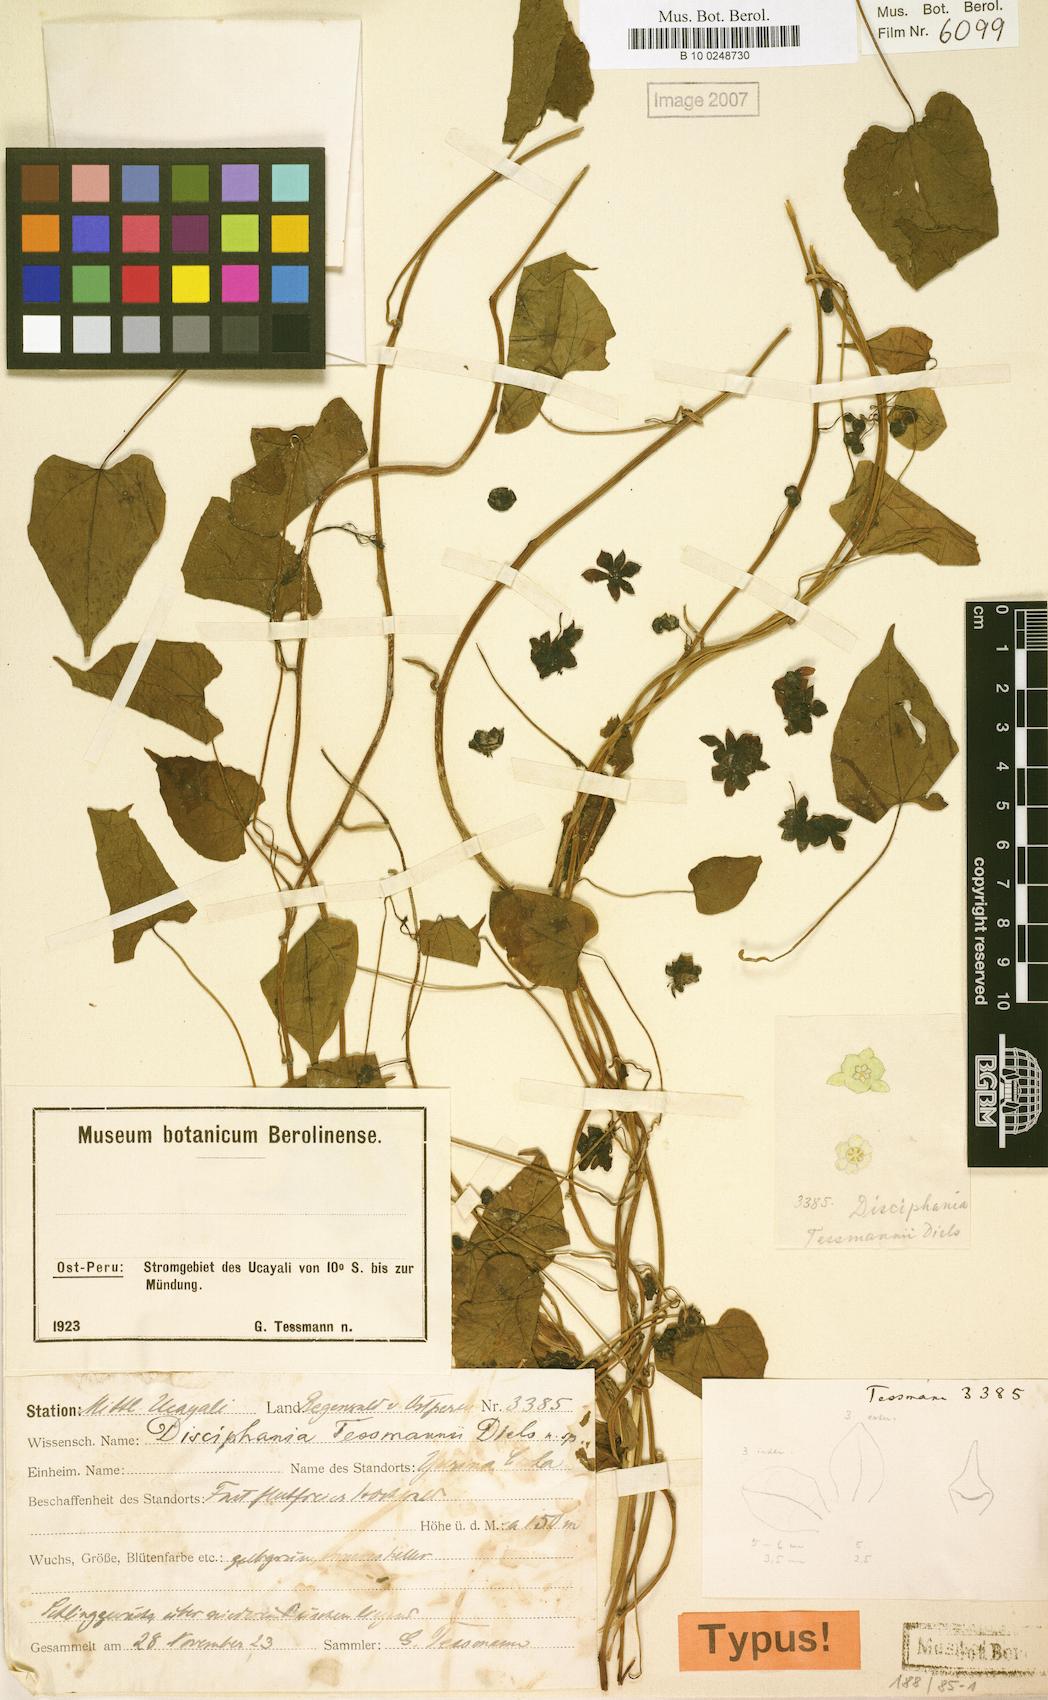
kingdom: Plantae
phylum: Tracheophyta
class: Magnoliopsida
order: Ranunculales
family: Menispermaceae
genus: Disciphania
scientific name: Disciphania tessmannii
